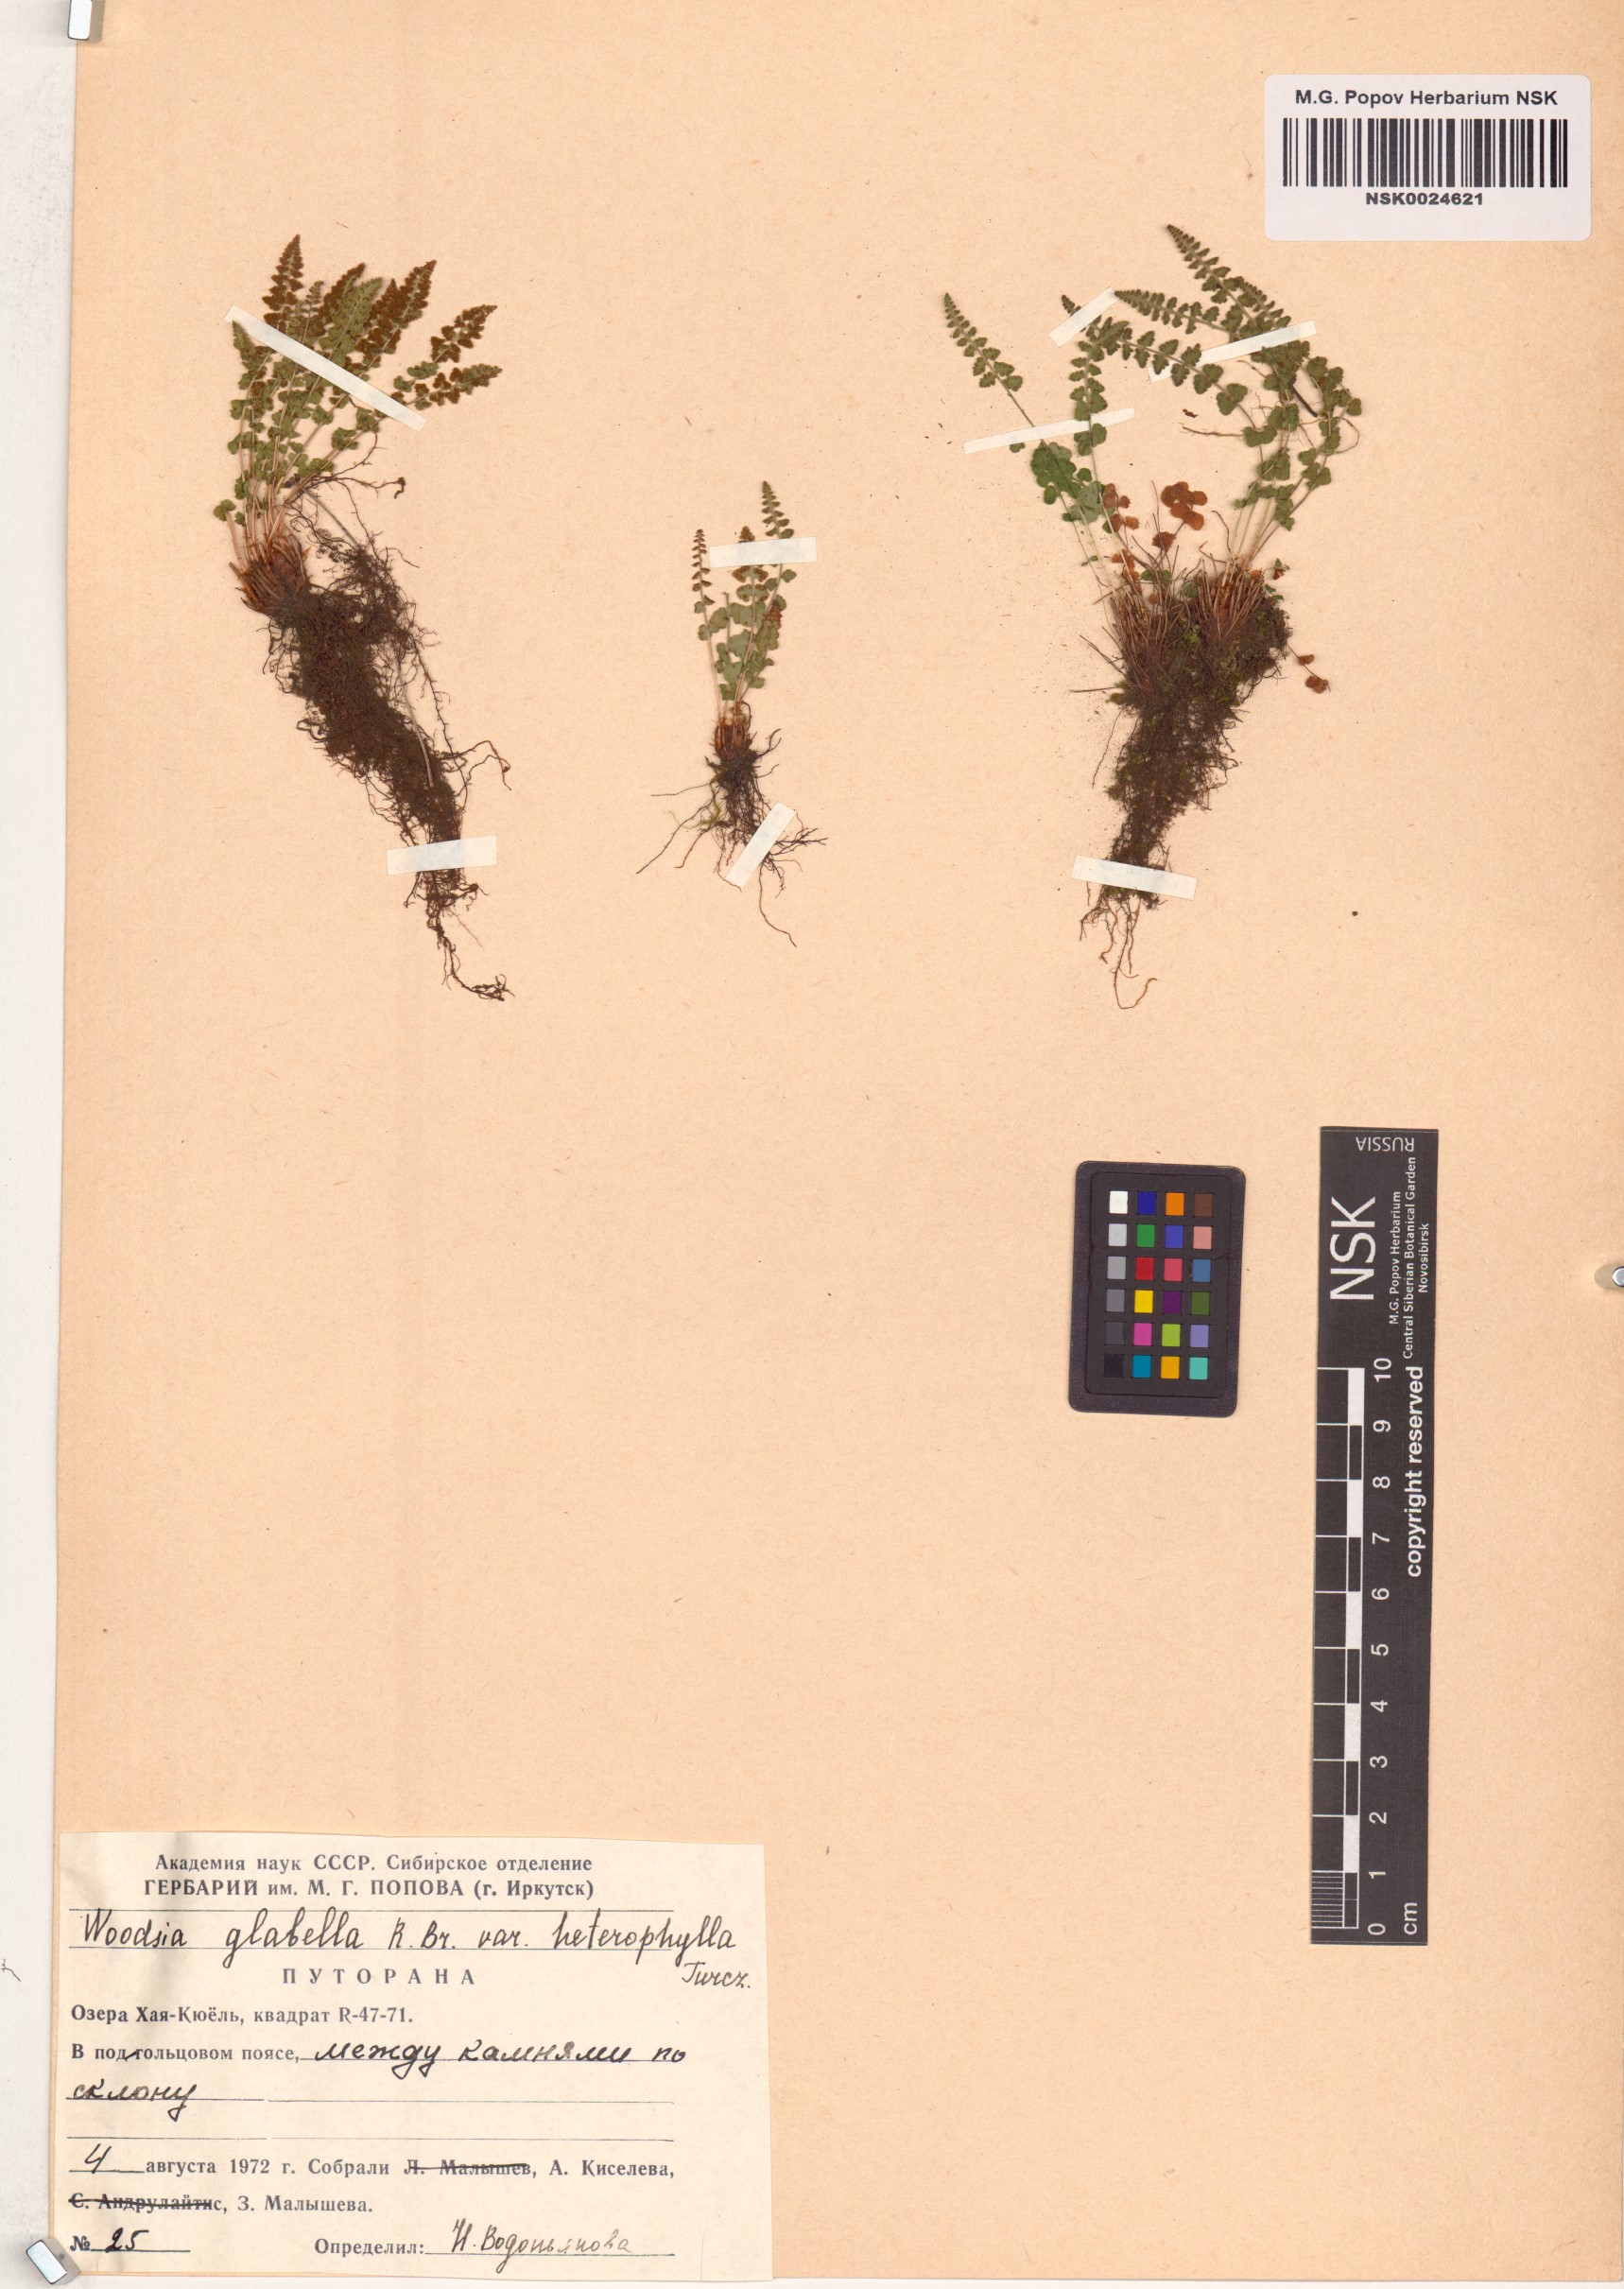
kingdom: Plantae
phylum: Tracheophyta
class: Polypodiopsida
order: Polypodiales
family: Woodsiaceae
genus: Woodsia
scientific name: Woodsia pulchella
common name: Graceful woodsia
